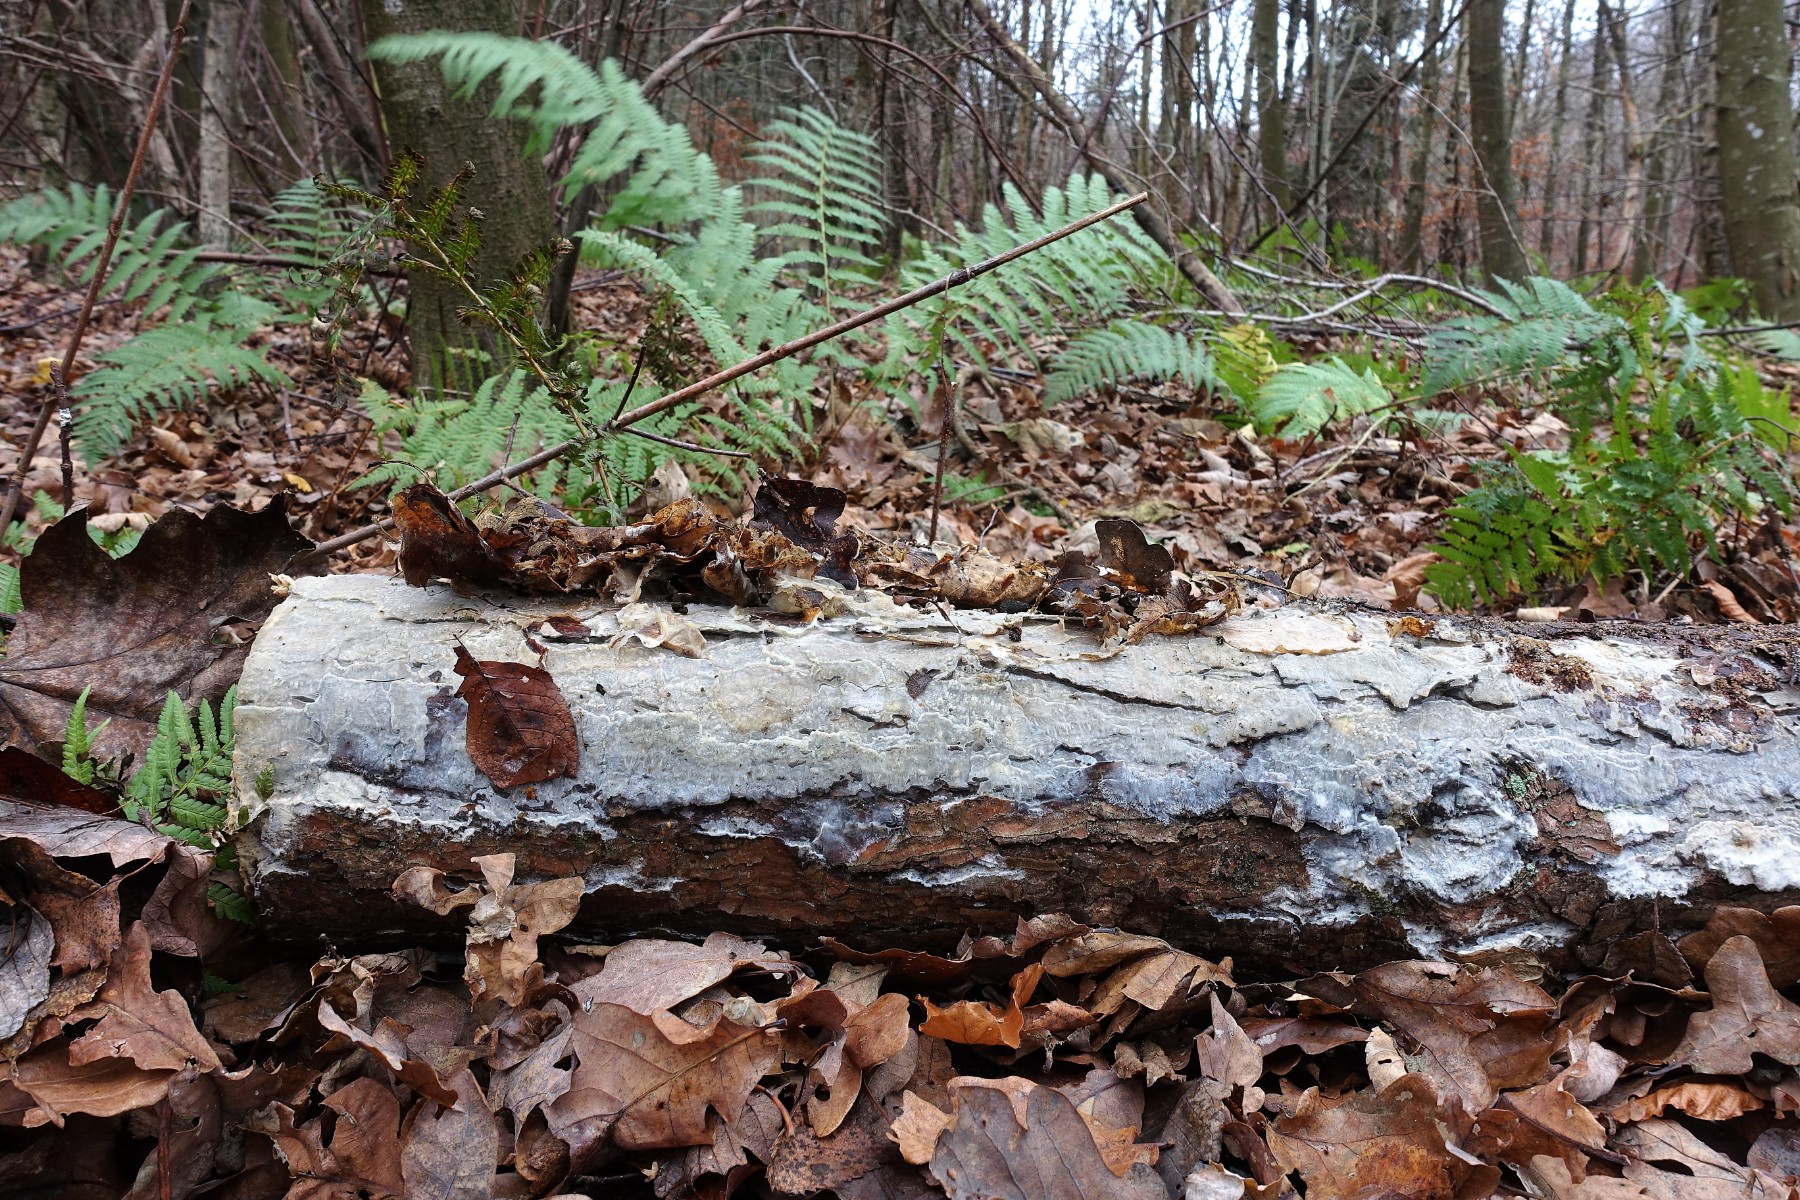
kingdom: Fungi
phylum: Basidiomycota
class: Agaricomycetes
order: Polyporales
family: Phanerochaetaceae
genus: Phlebiopsis
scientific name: Phlebiopsis gigantea
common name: kæmpebarksvamp
